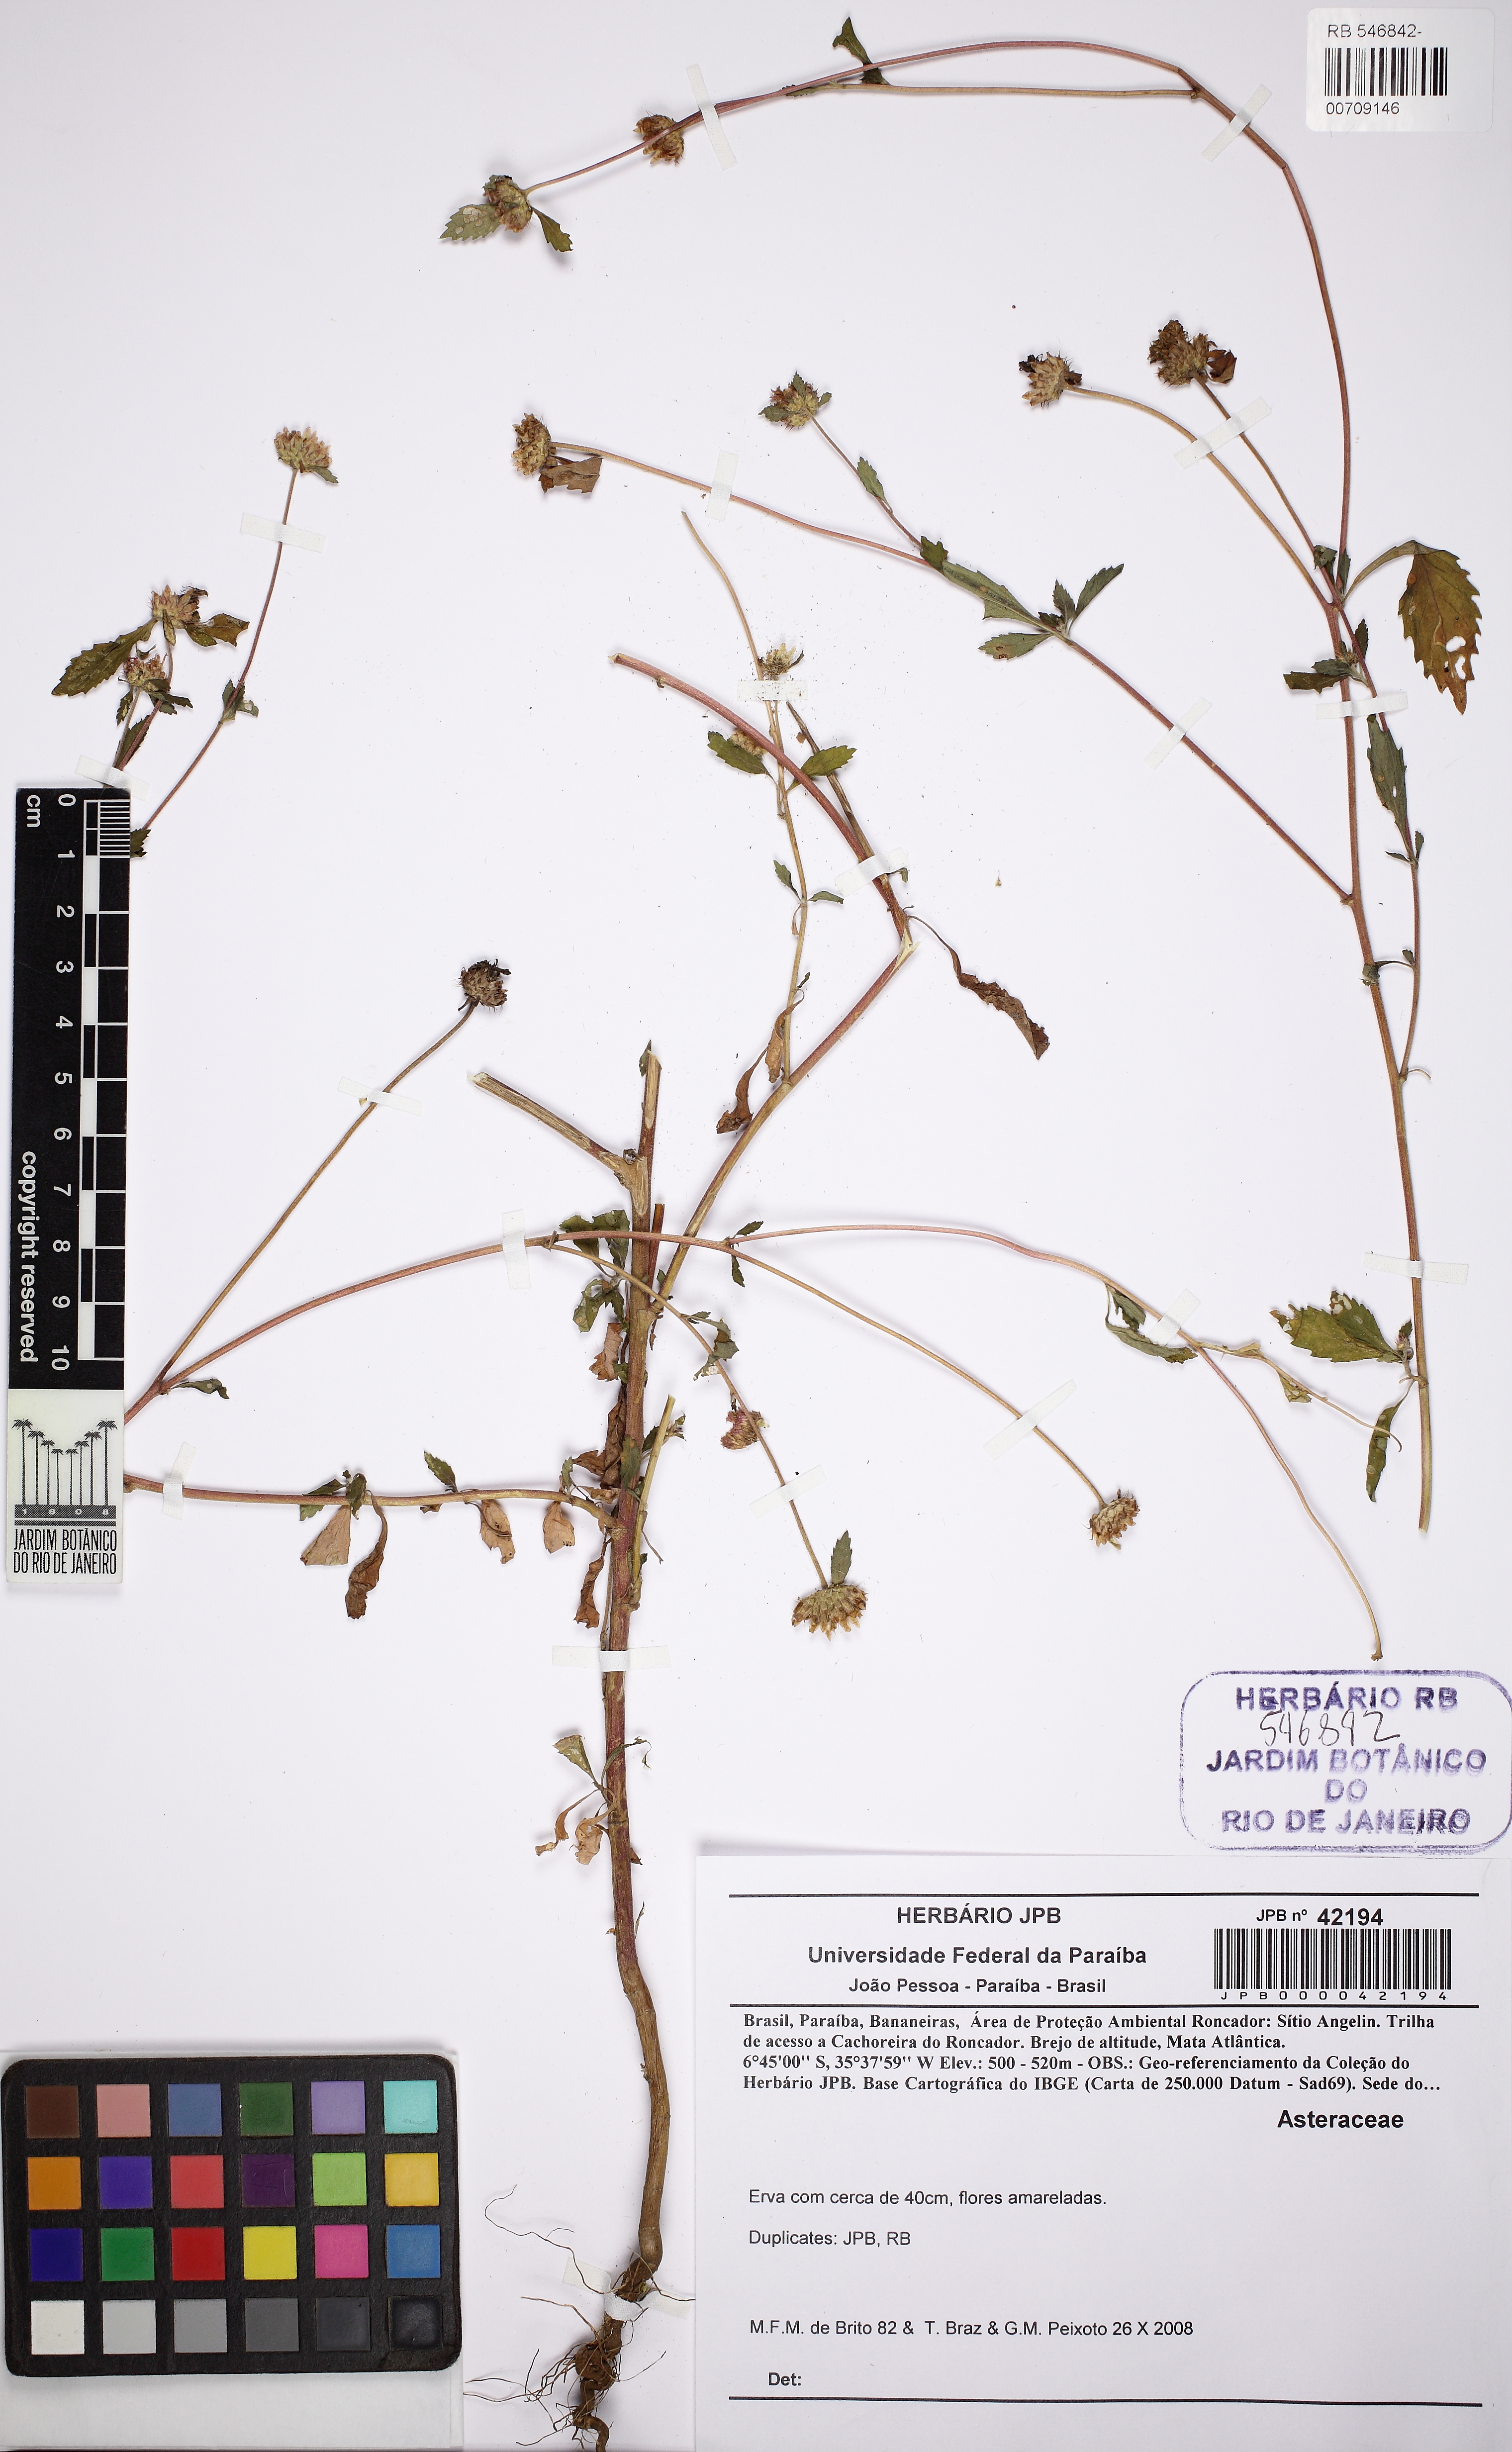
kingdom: Plantae
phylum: Tracheophyta
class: Magnoliopsida
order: Asterales
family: Asteraceae
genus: Centratherum
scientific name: Centratherum punctatum
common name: Larkdaisy
